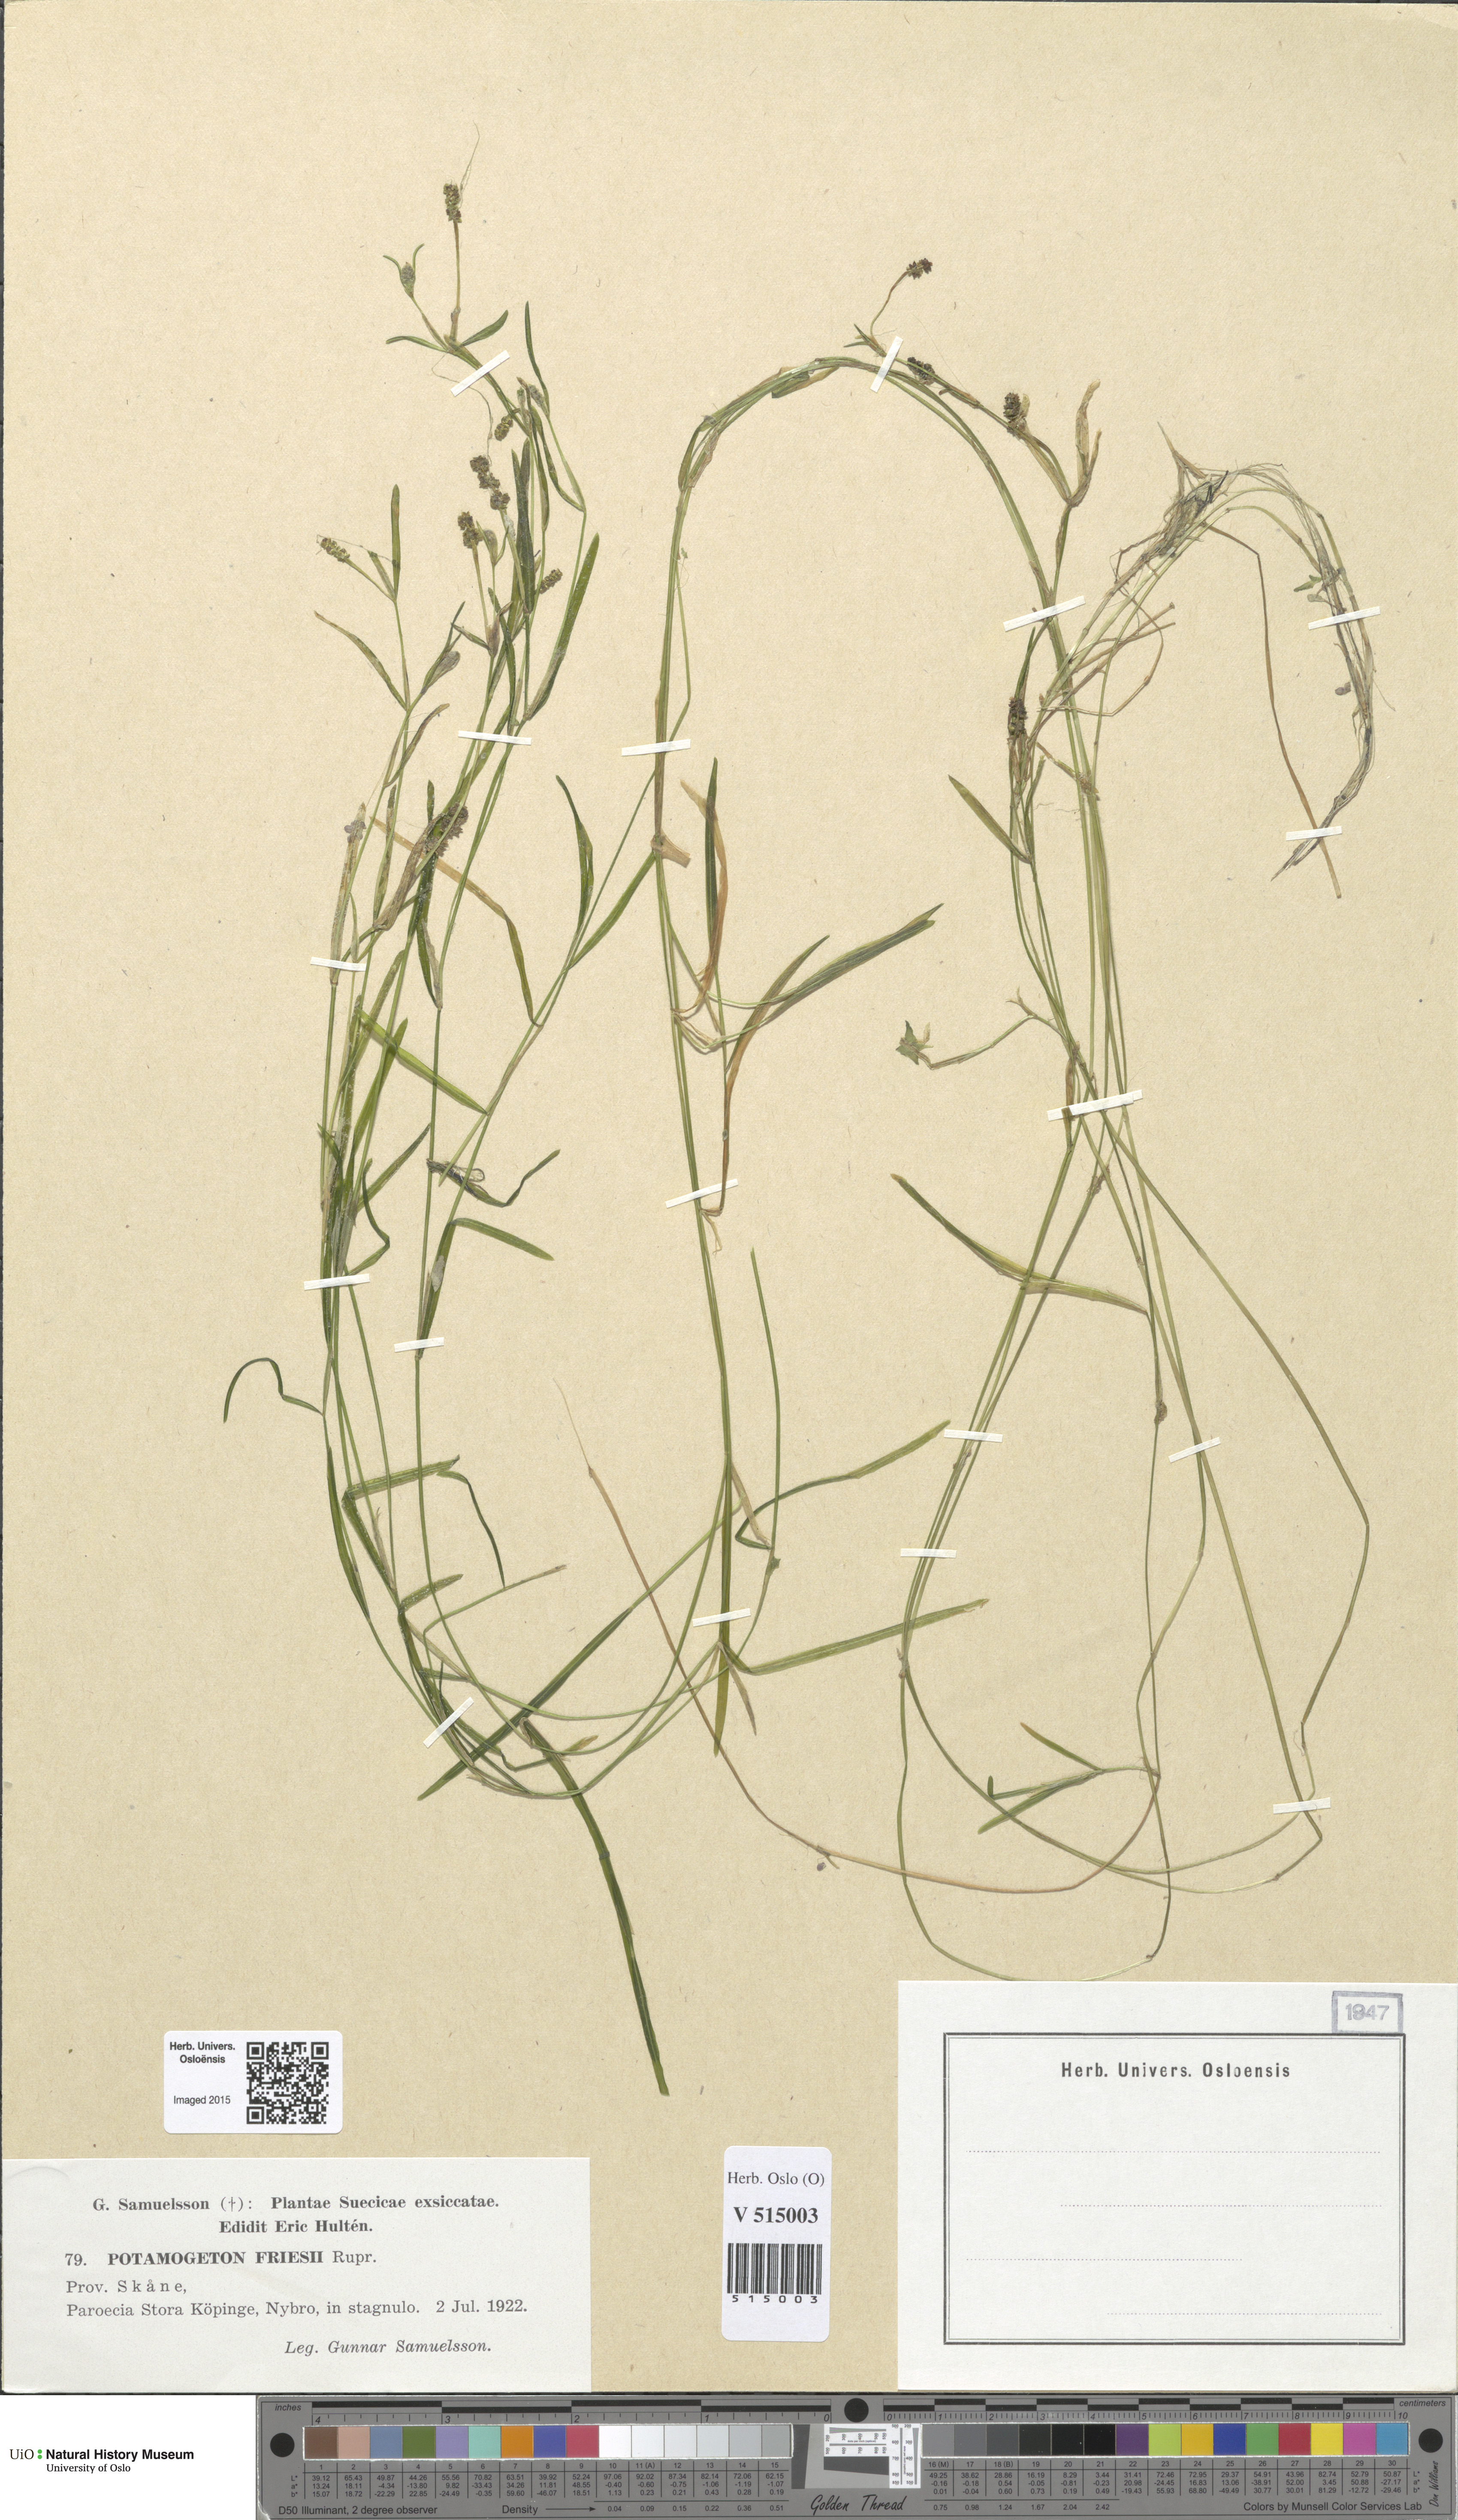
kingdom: Plantae
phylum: Tracheophyta
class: Liliopsida
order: Alismatales
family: Potamogetonaceae
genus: Potamogeton
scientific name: Potamogeton friesii
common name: Flat-stalked pondweed
